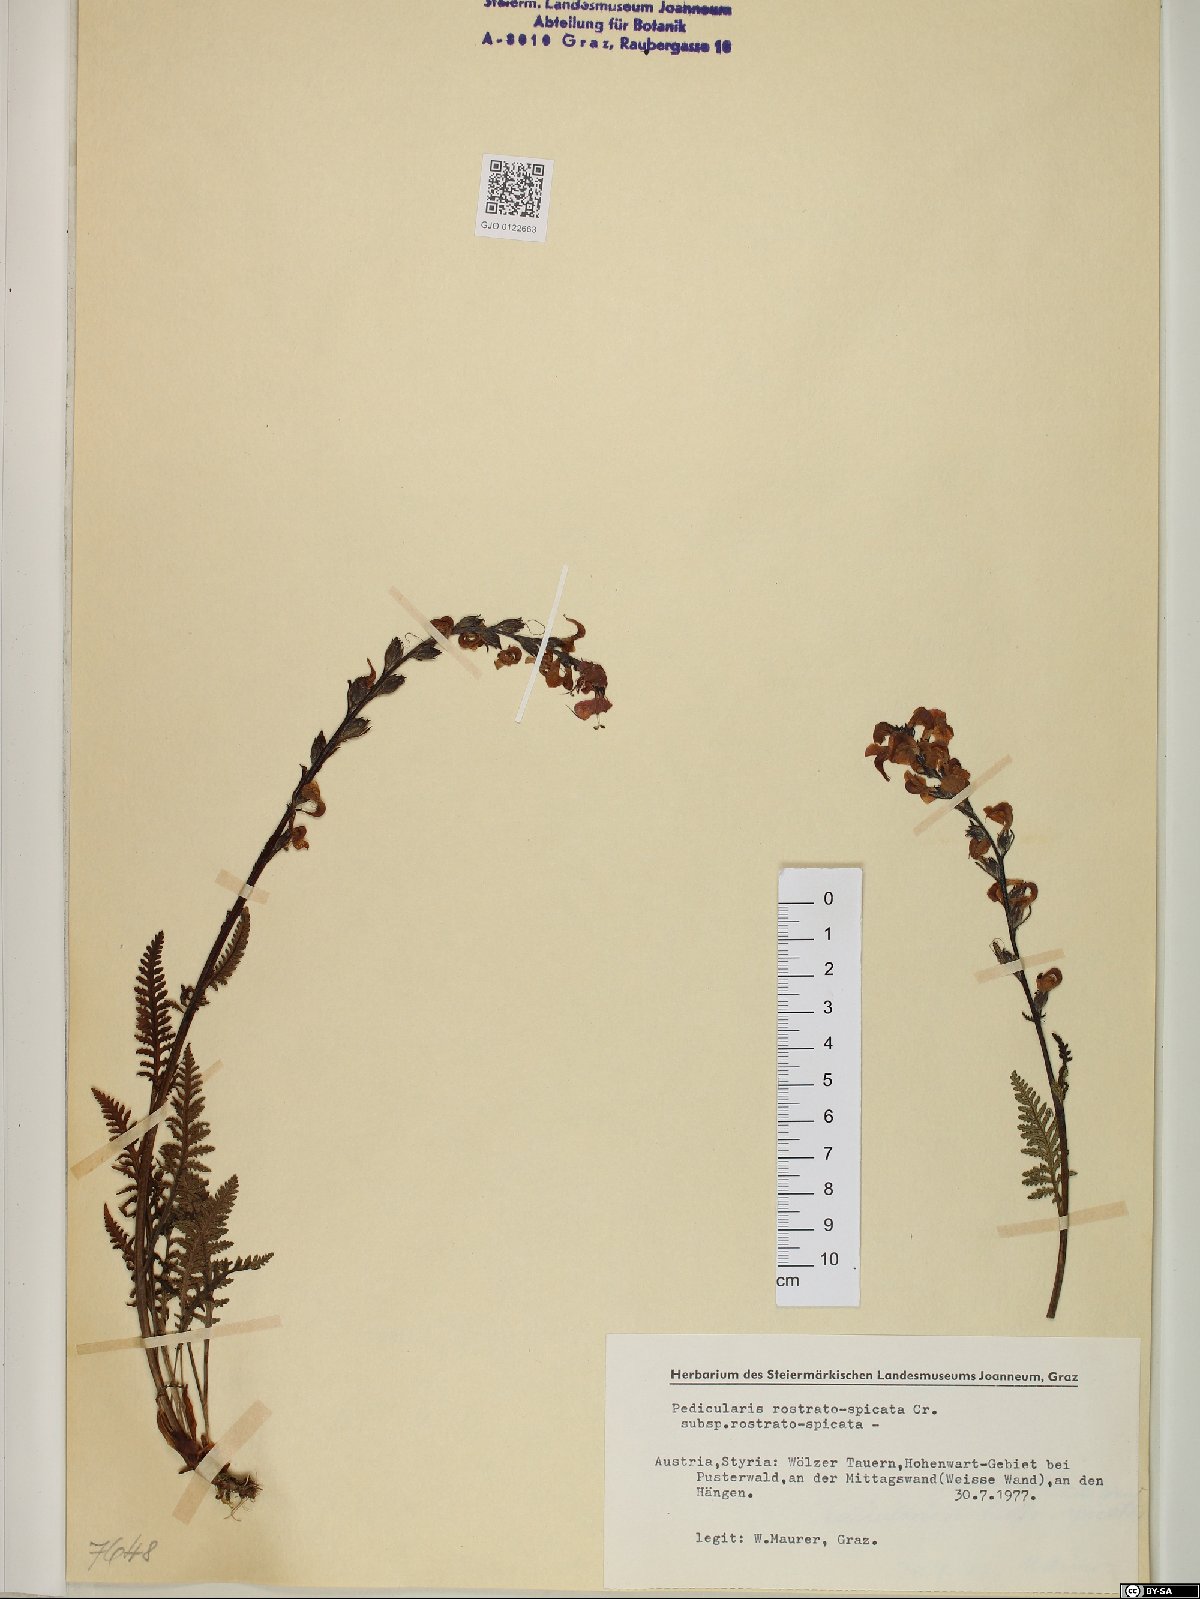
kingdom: Plantae
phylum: Tracheophyta
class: Magnoliopsida
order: Lamiales
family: Orobanchaceae
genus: Pedicularis
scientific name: Pedicularis rostratospicata
